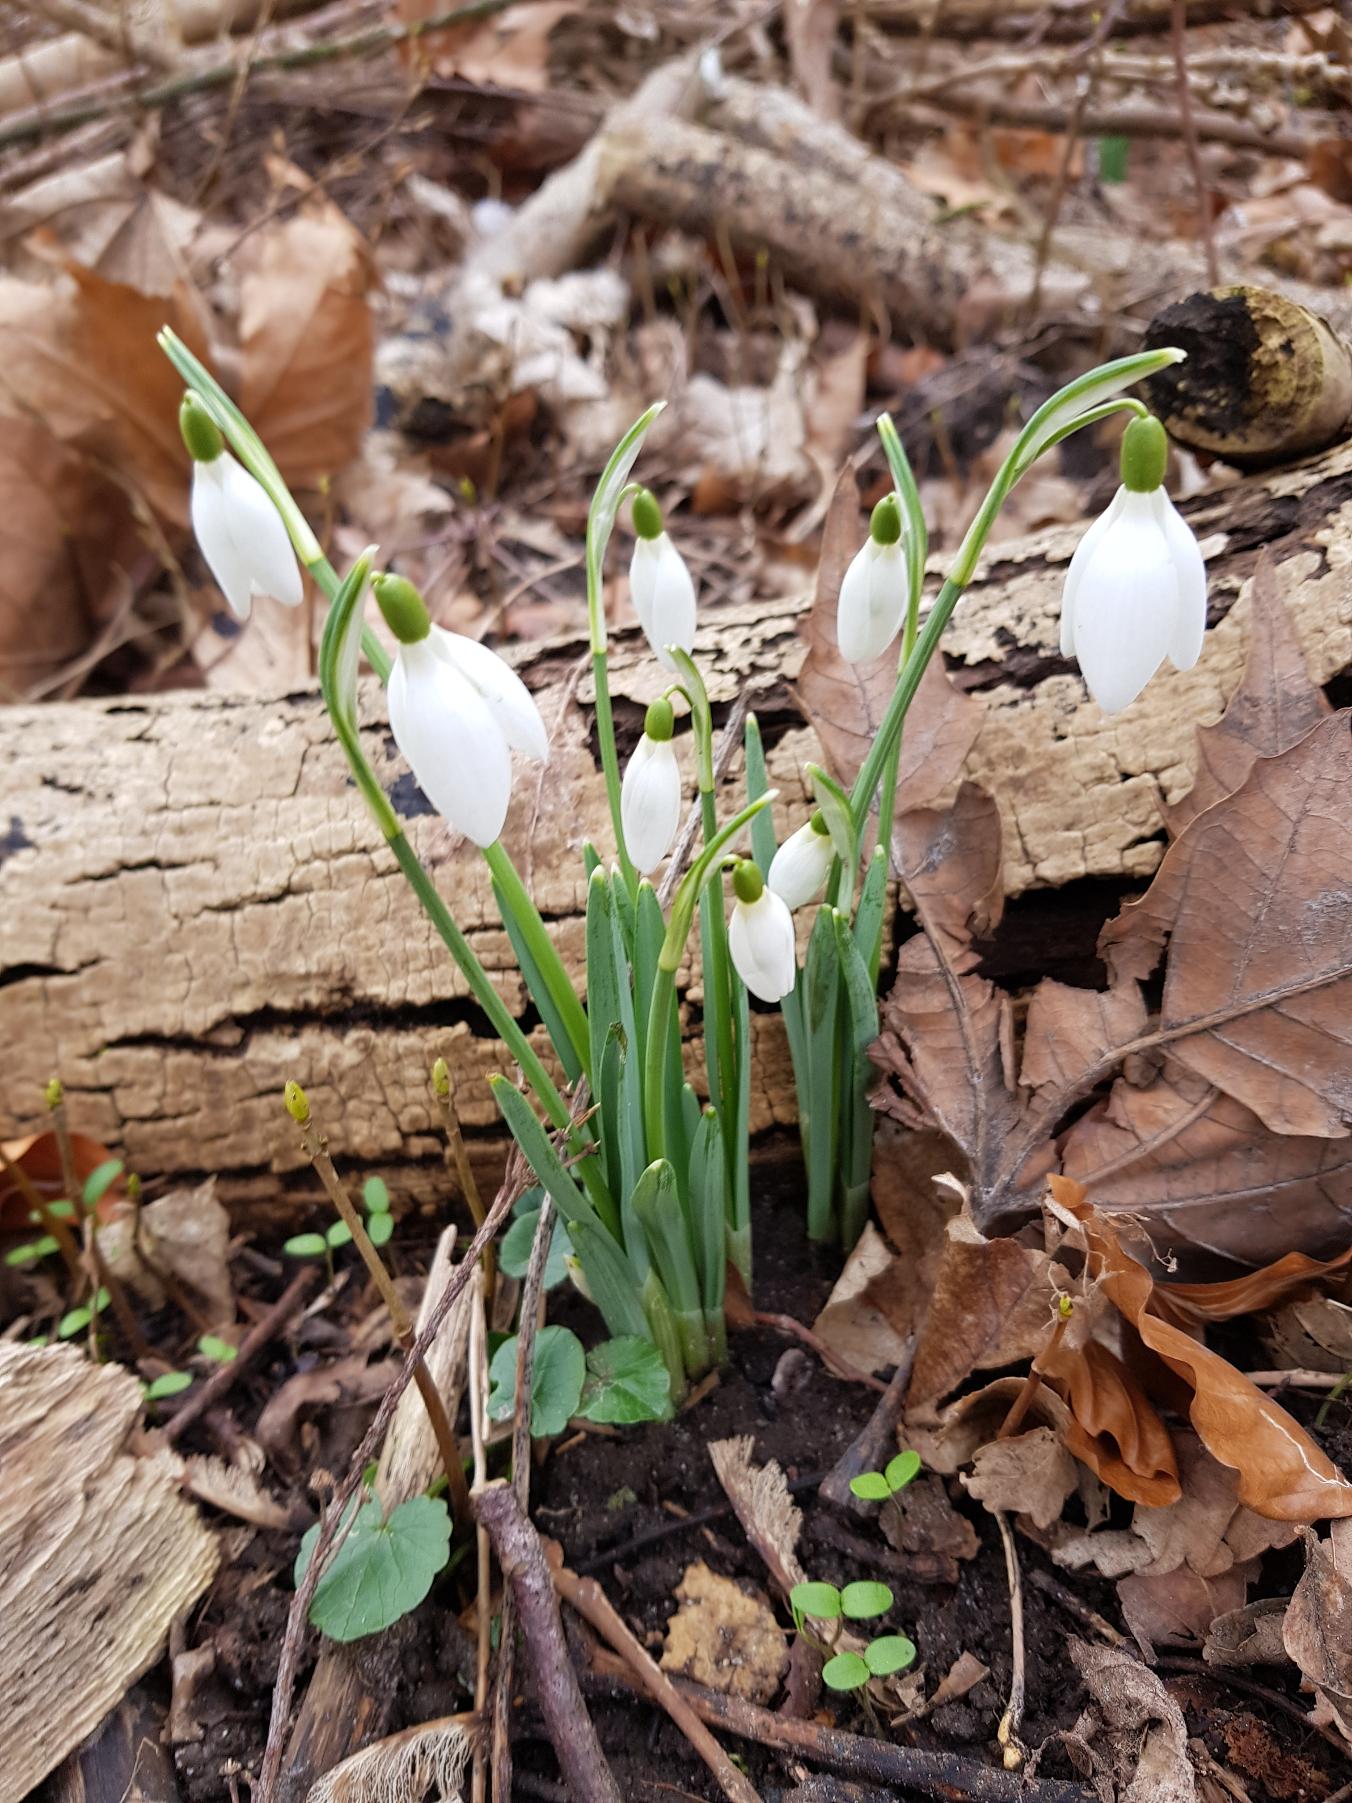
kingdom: Plantae
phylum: Tracheophyta
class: Liliopsida
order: Asparagales
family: Amaryllidaceae
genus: Galanthus
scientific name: Galanthus nivalis
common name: Vintergæk
